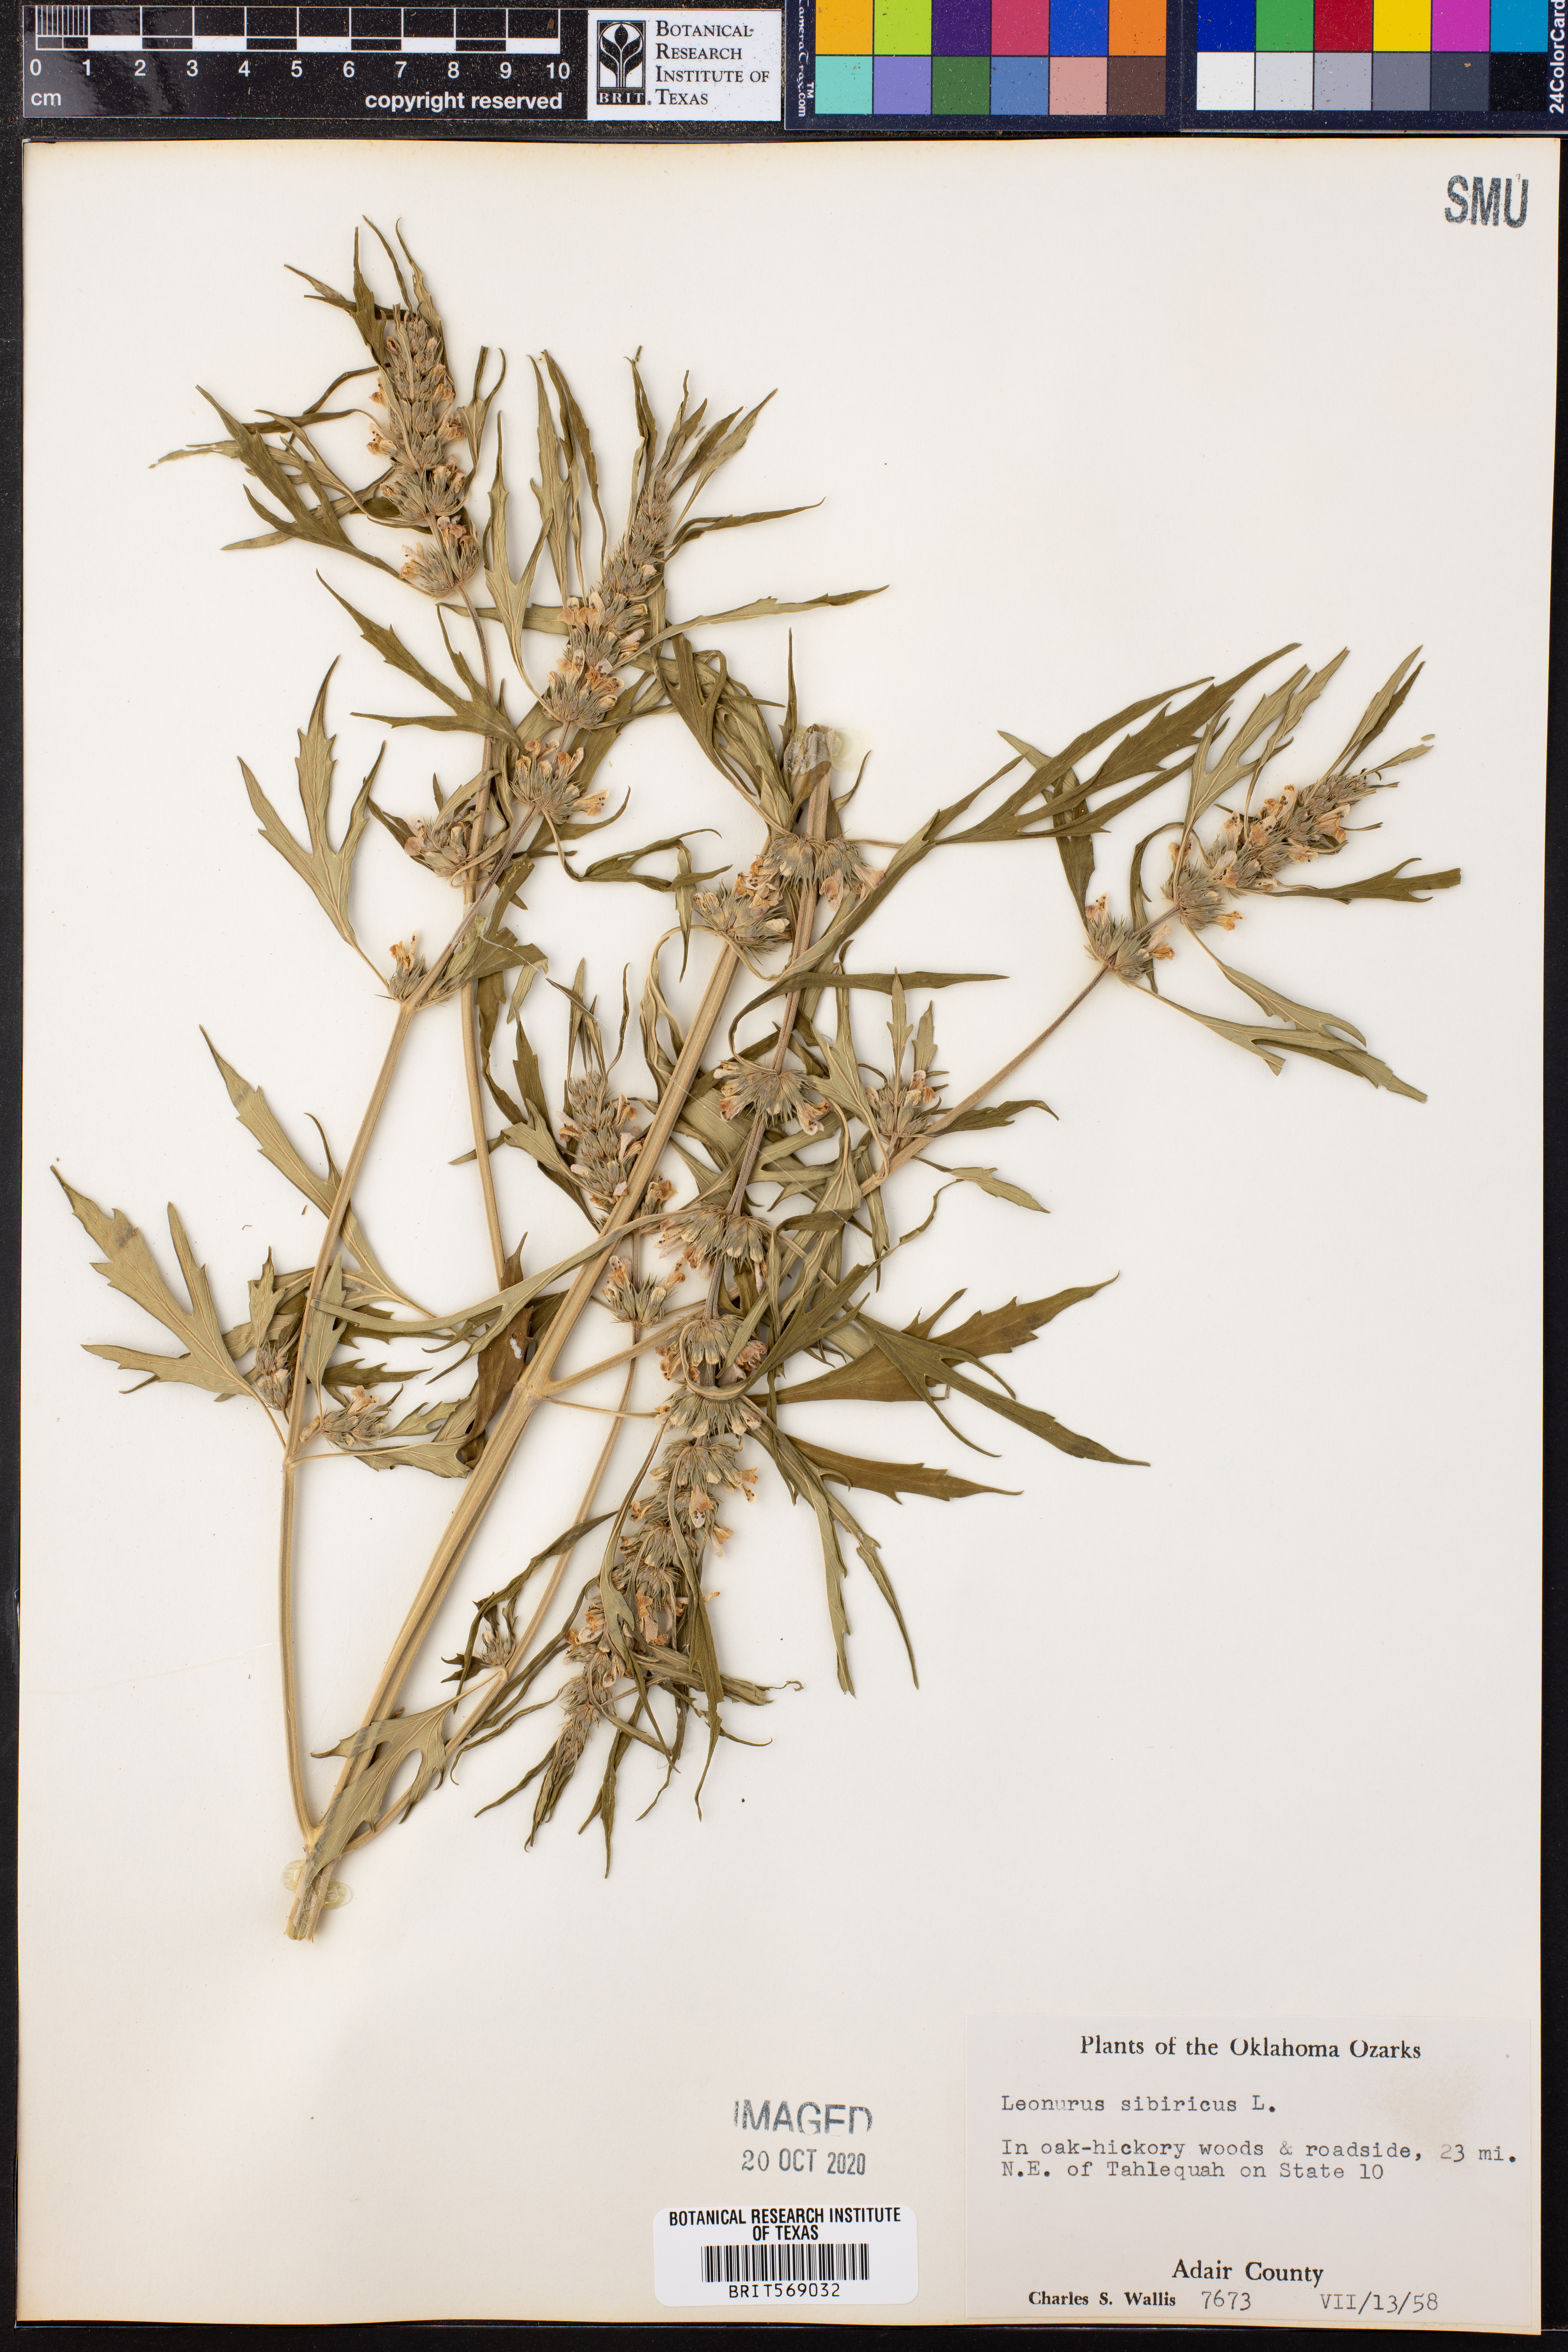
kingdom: Plantae
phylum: Tracheophyta
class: Magnoliopsida
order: Lamiales
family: Lamiaceae
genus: Leonurus
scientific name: Leonurus sibiricus
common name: Honeyweed
